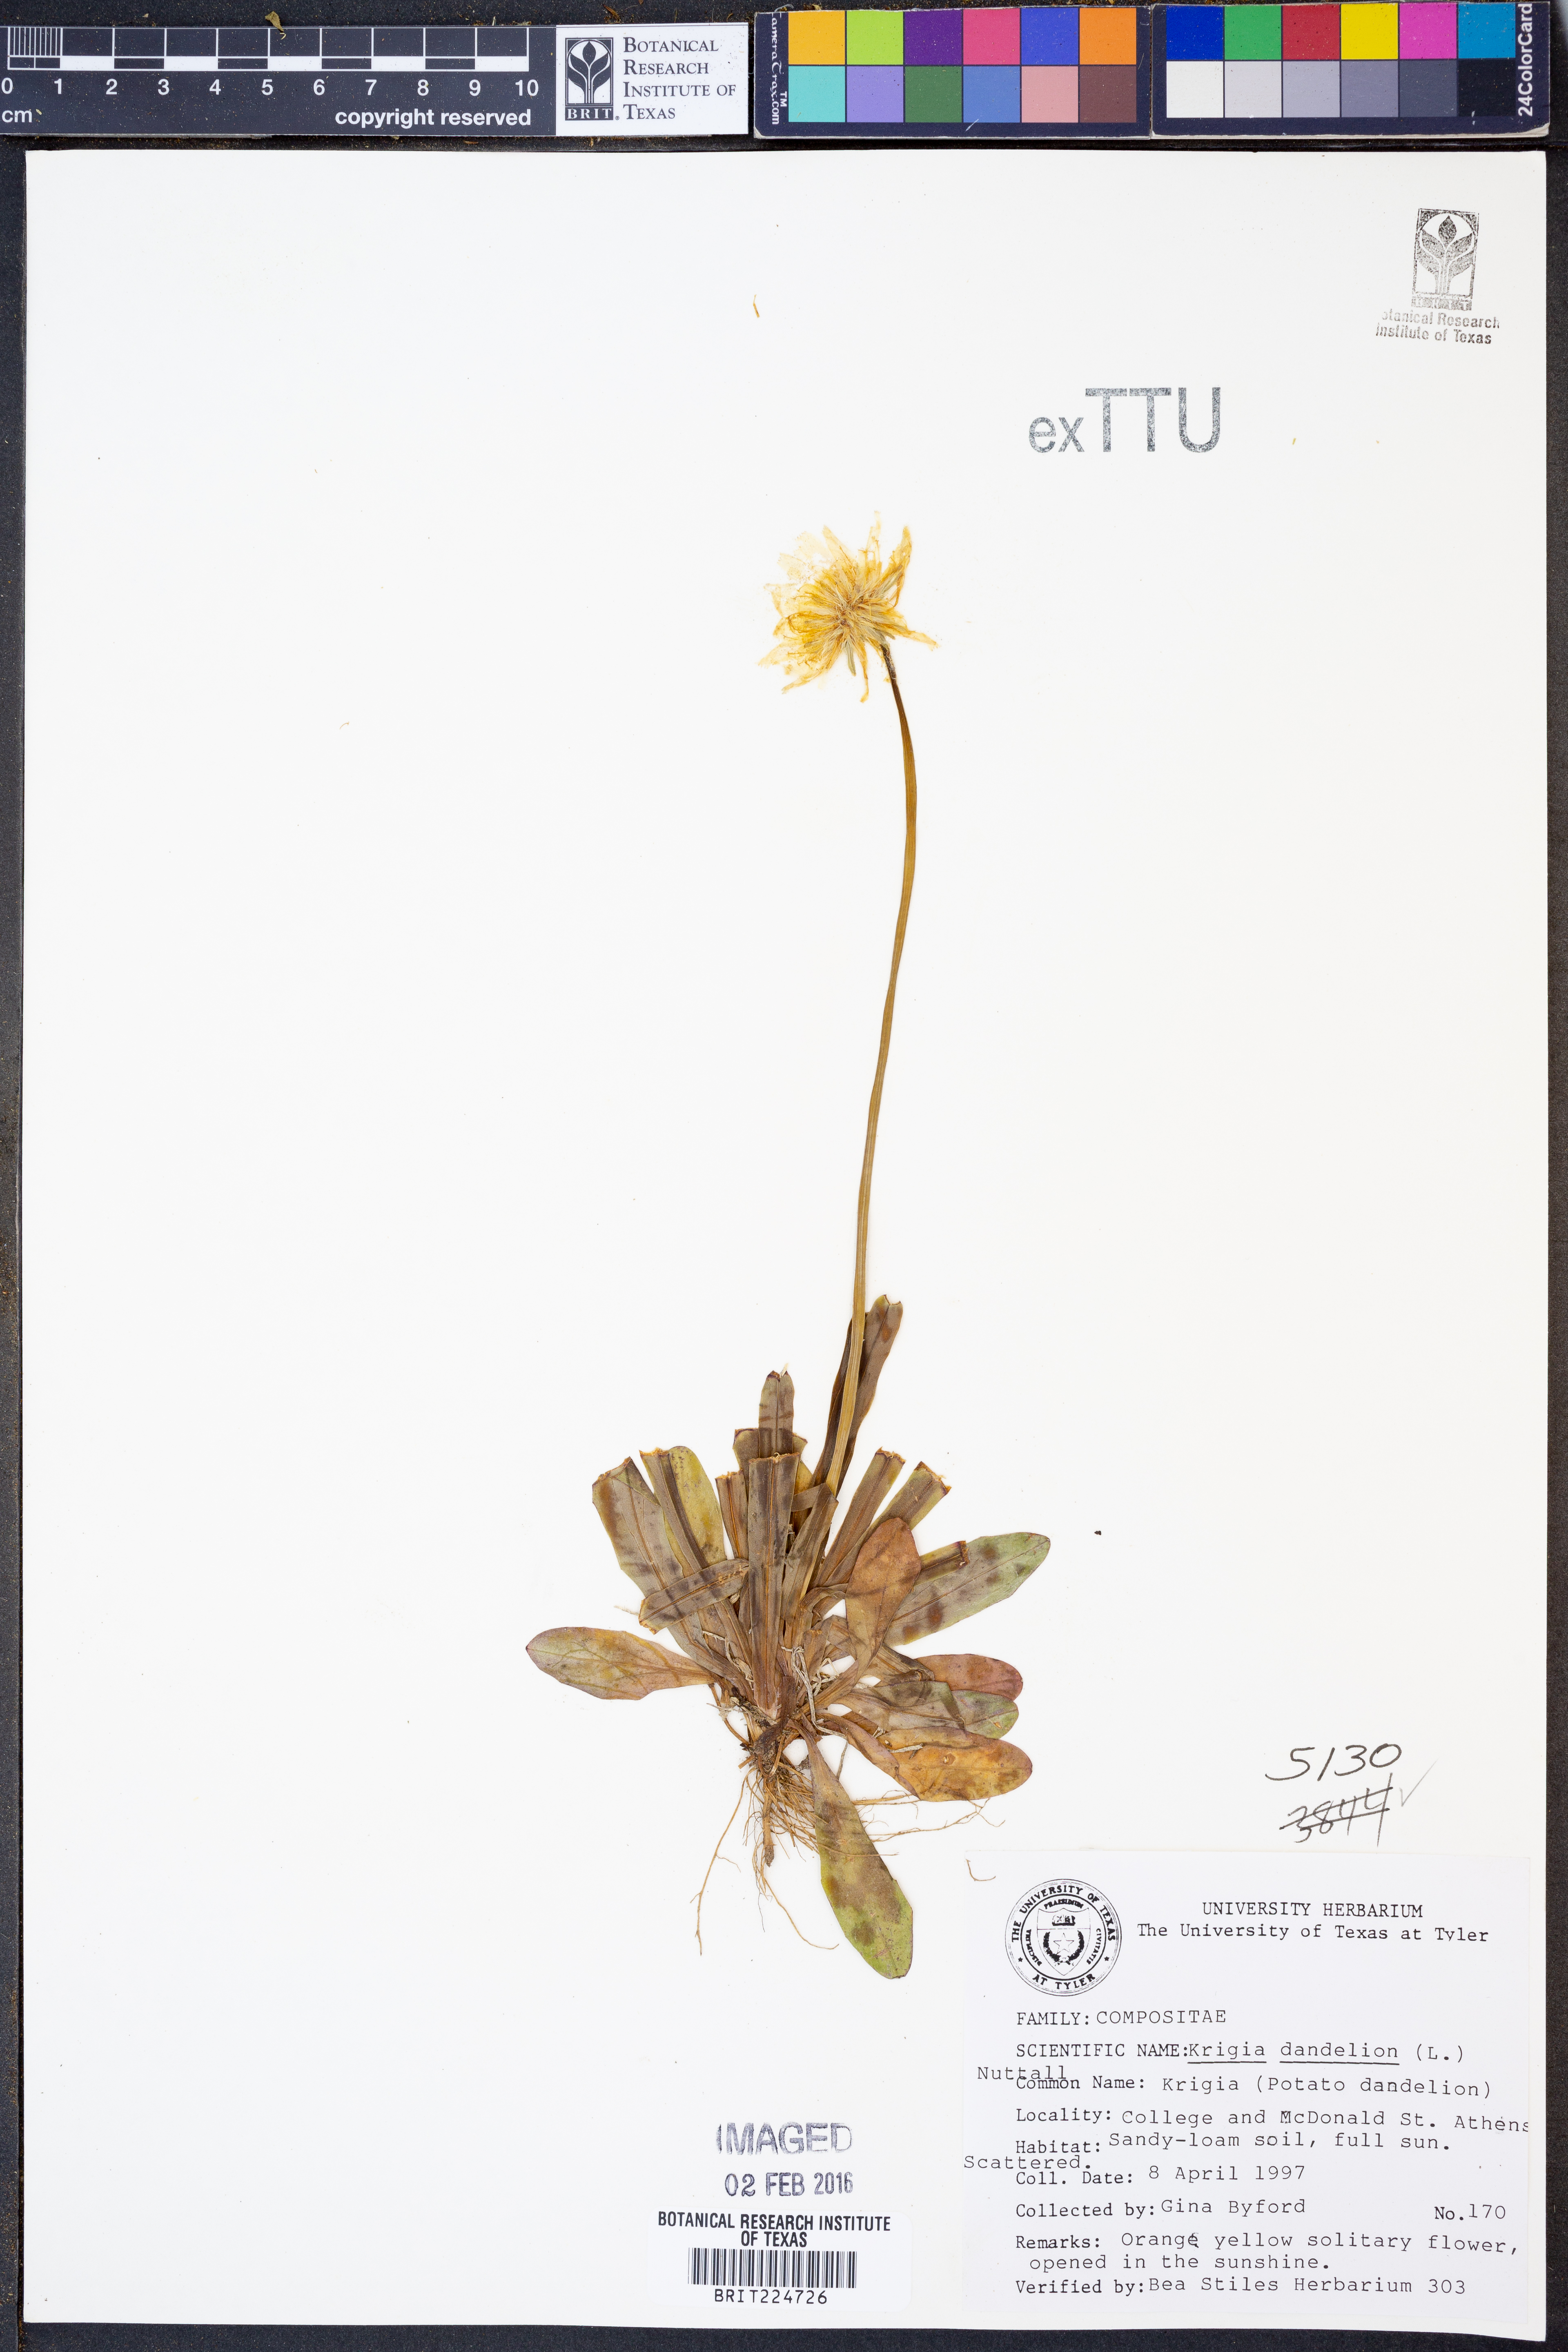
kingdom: Plantae
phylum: Tracheophyta
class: Magnoliopsida
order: Asterales
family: Asteraceae
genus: Krigia
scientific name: Krigia dandelion
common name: Colonial dwarf-dandelion
